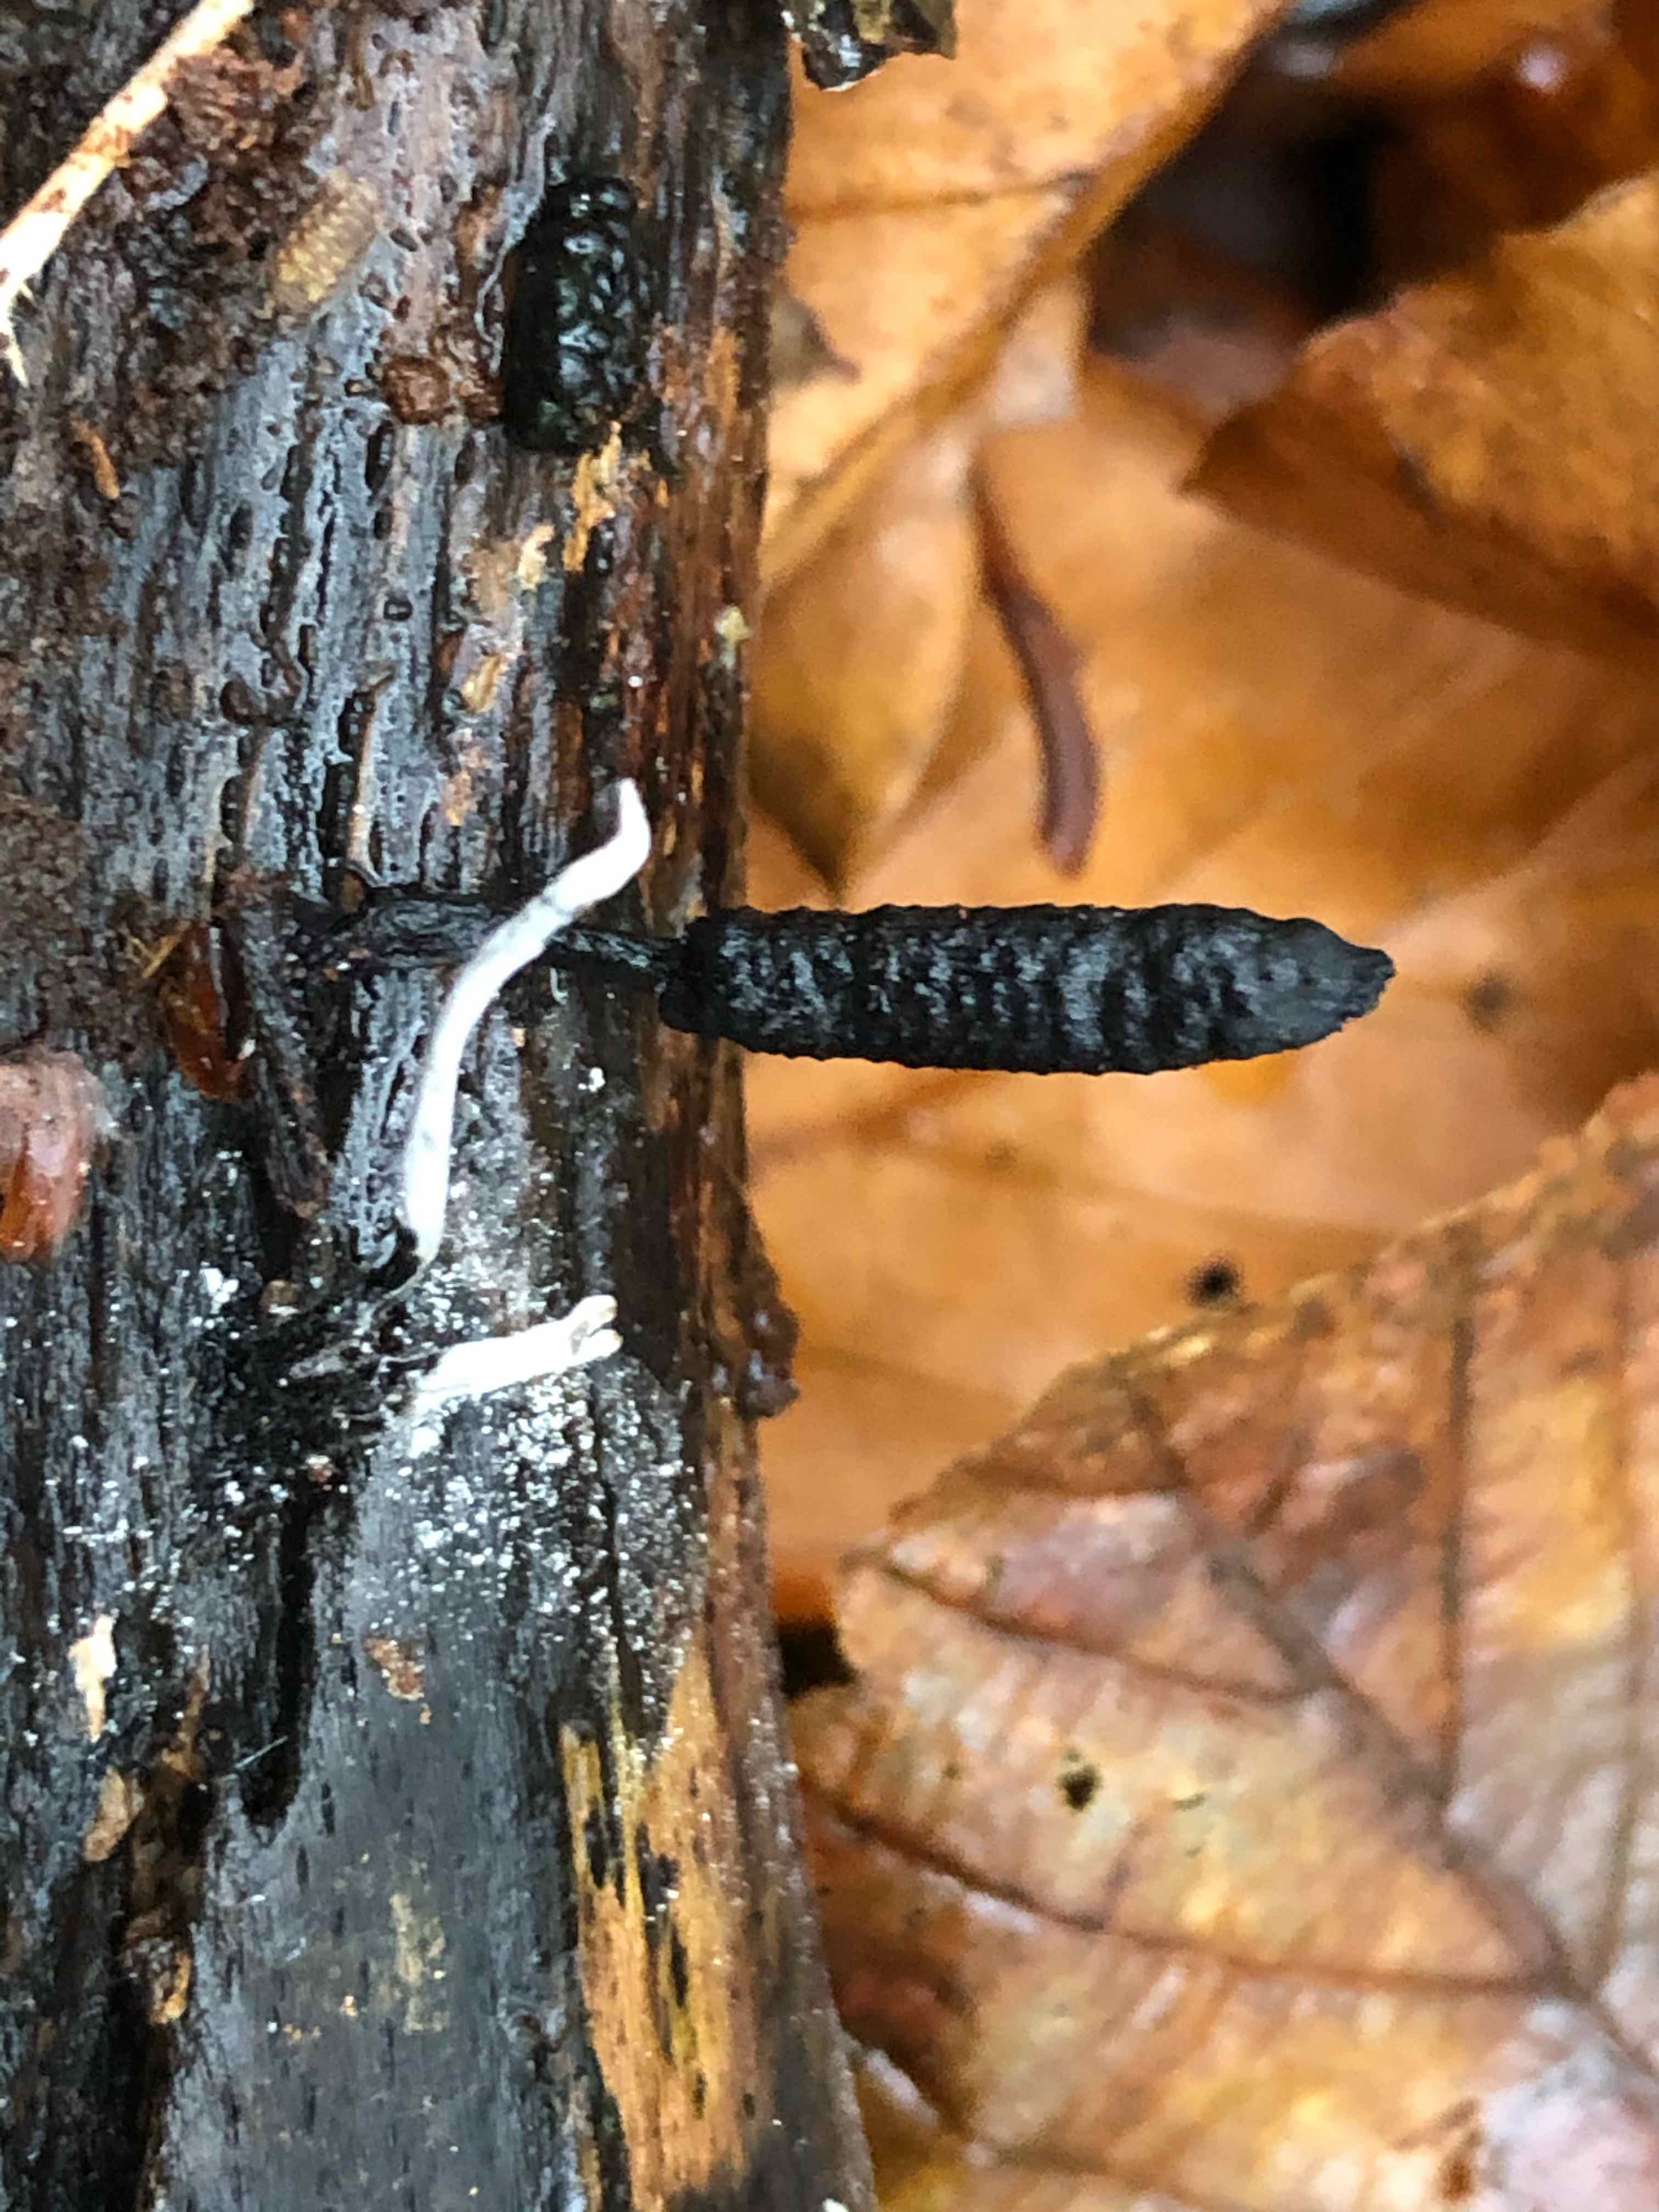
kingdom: Fungi
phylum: Ascomycota
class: Sordariomycetes
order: Xylariales
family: Xylariaceae
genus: Xylaria
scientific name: Xylaria hypoxylon
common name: grenet stødsvamp
